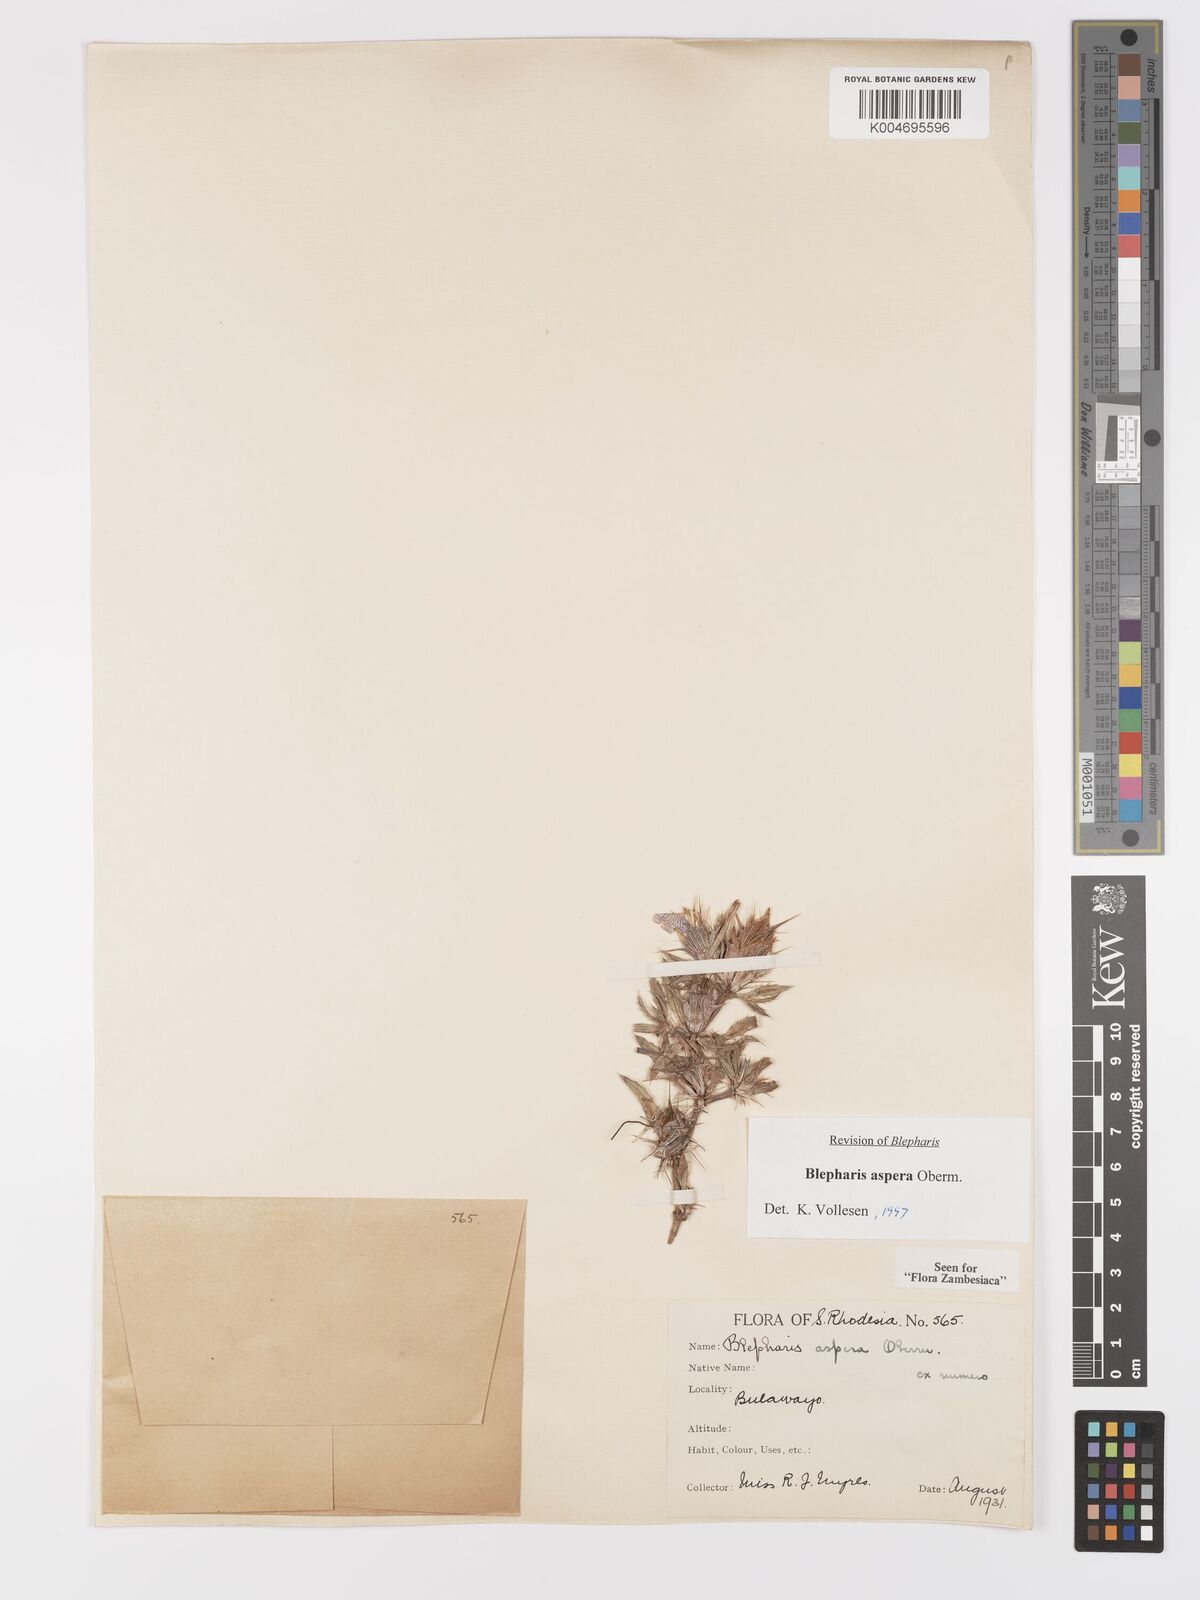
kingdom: Plantae
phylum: Tracheophyta
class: Magnoliopsida
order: Lamiales
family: Acanthaceae
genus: Blepharis
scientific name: Blepharis aspera
